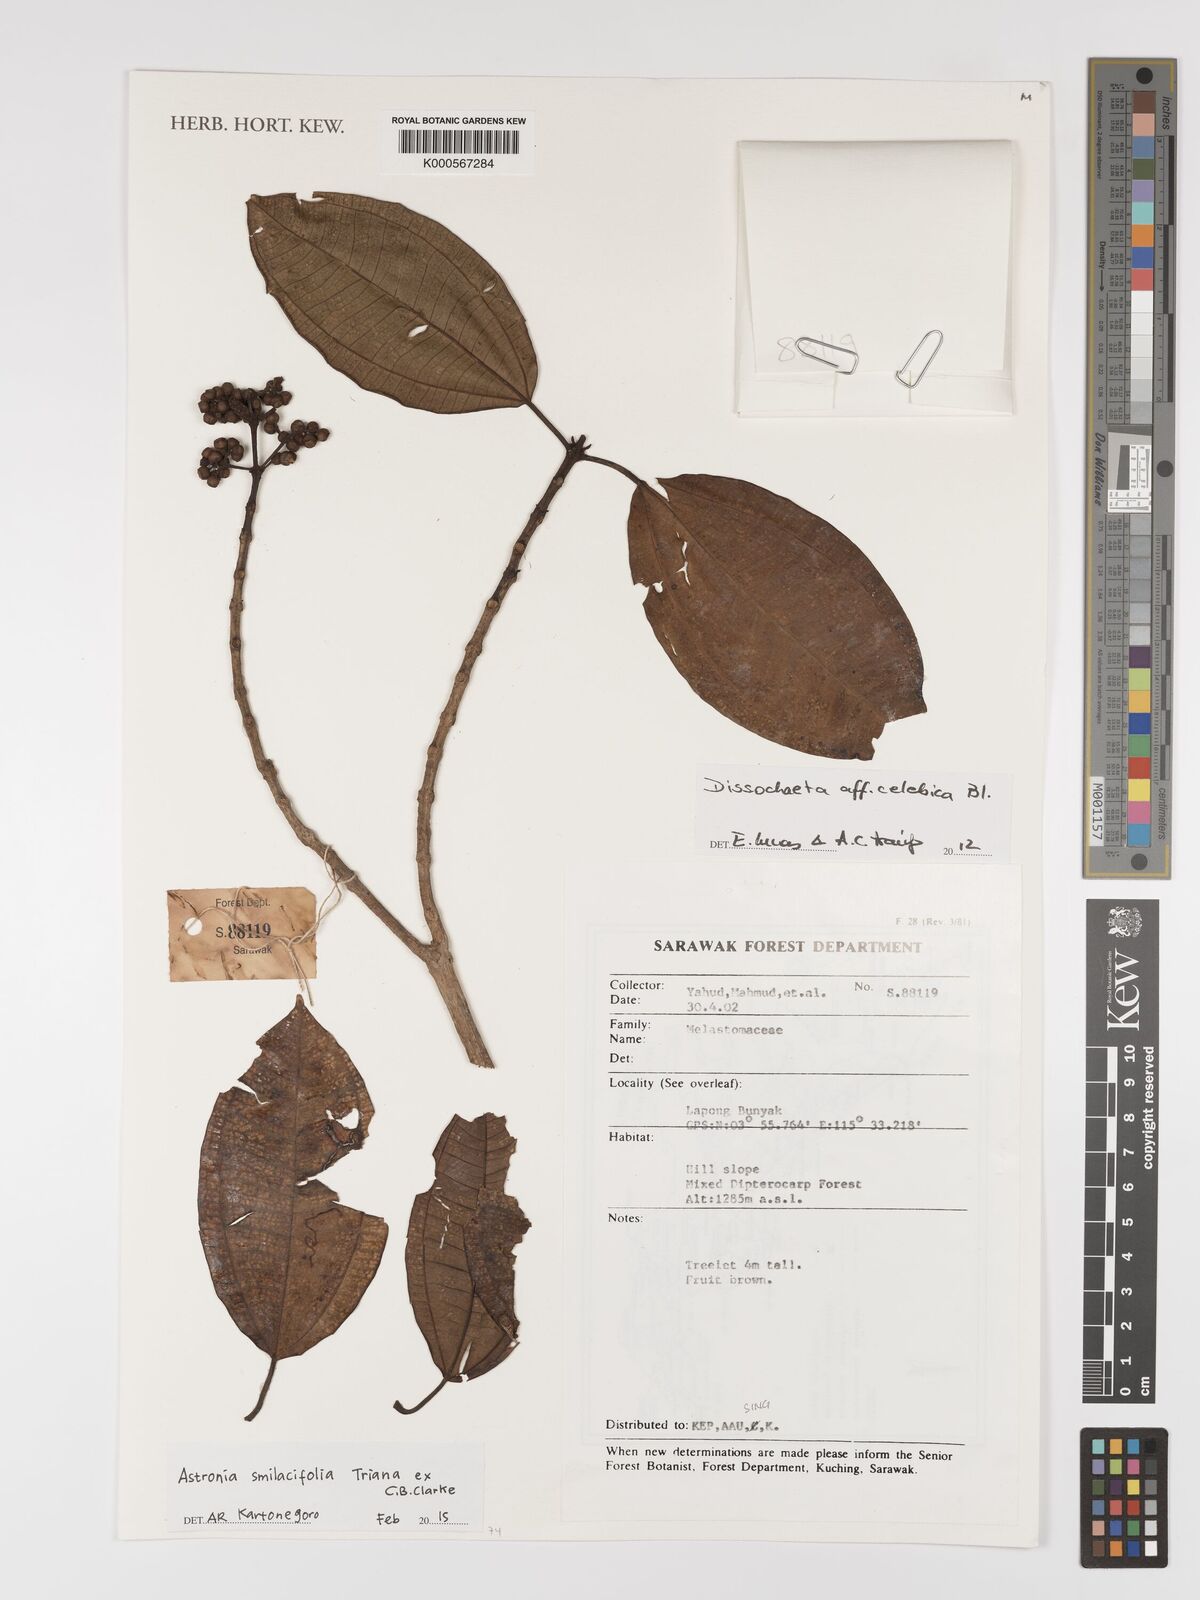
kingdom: Plantae
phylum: Tracheophyta
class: Magnoliopsida
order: Myrtales
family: Melastomataceae
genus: Astronia
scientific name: Astronia smilacifolia
